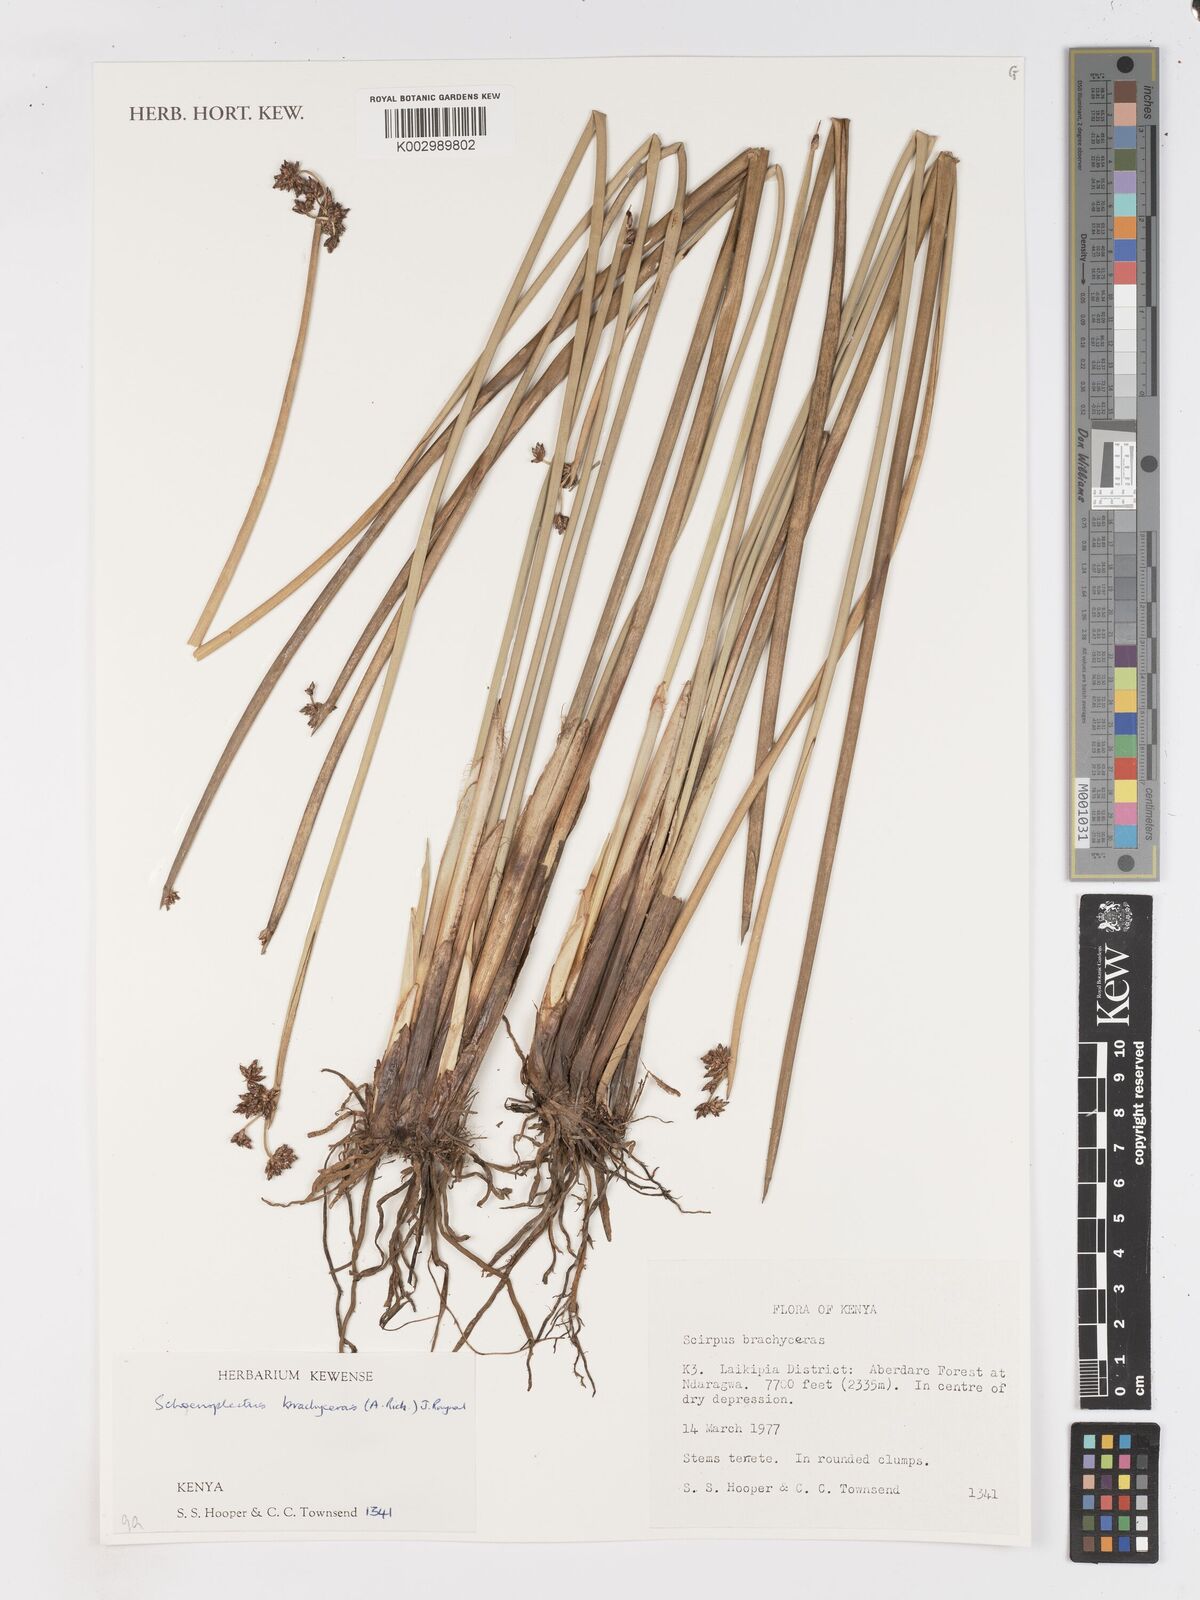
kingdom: Plantae
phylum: Tracheophyta
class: Liliopsida
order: Poales
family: Cyperaceae
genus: Schoenoplectiella
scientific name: Schoenoplectiella brachyceras
